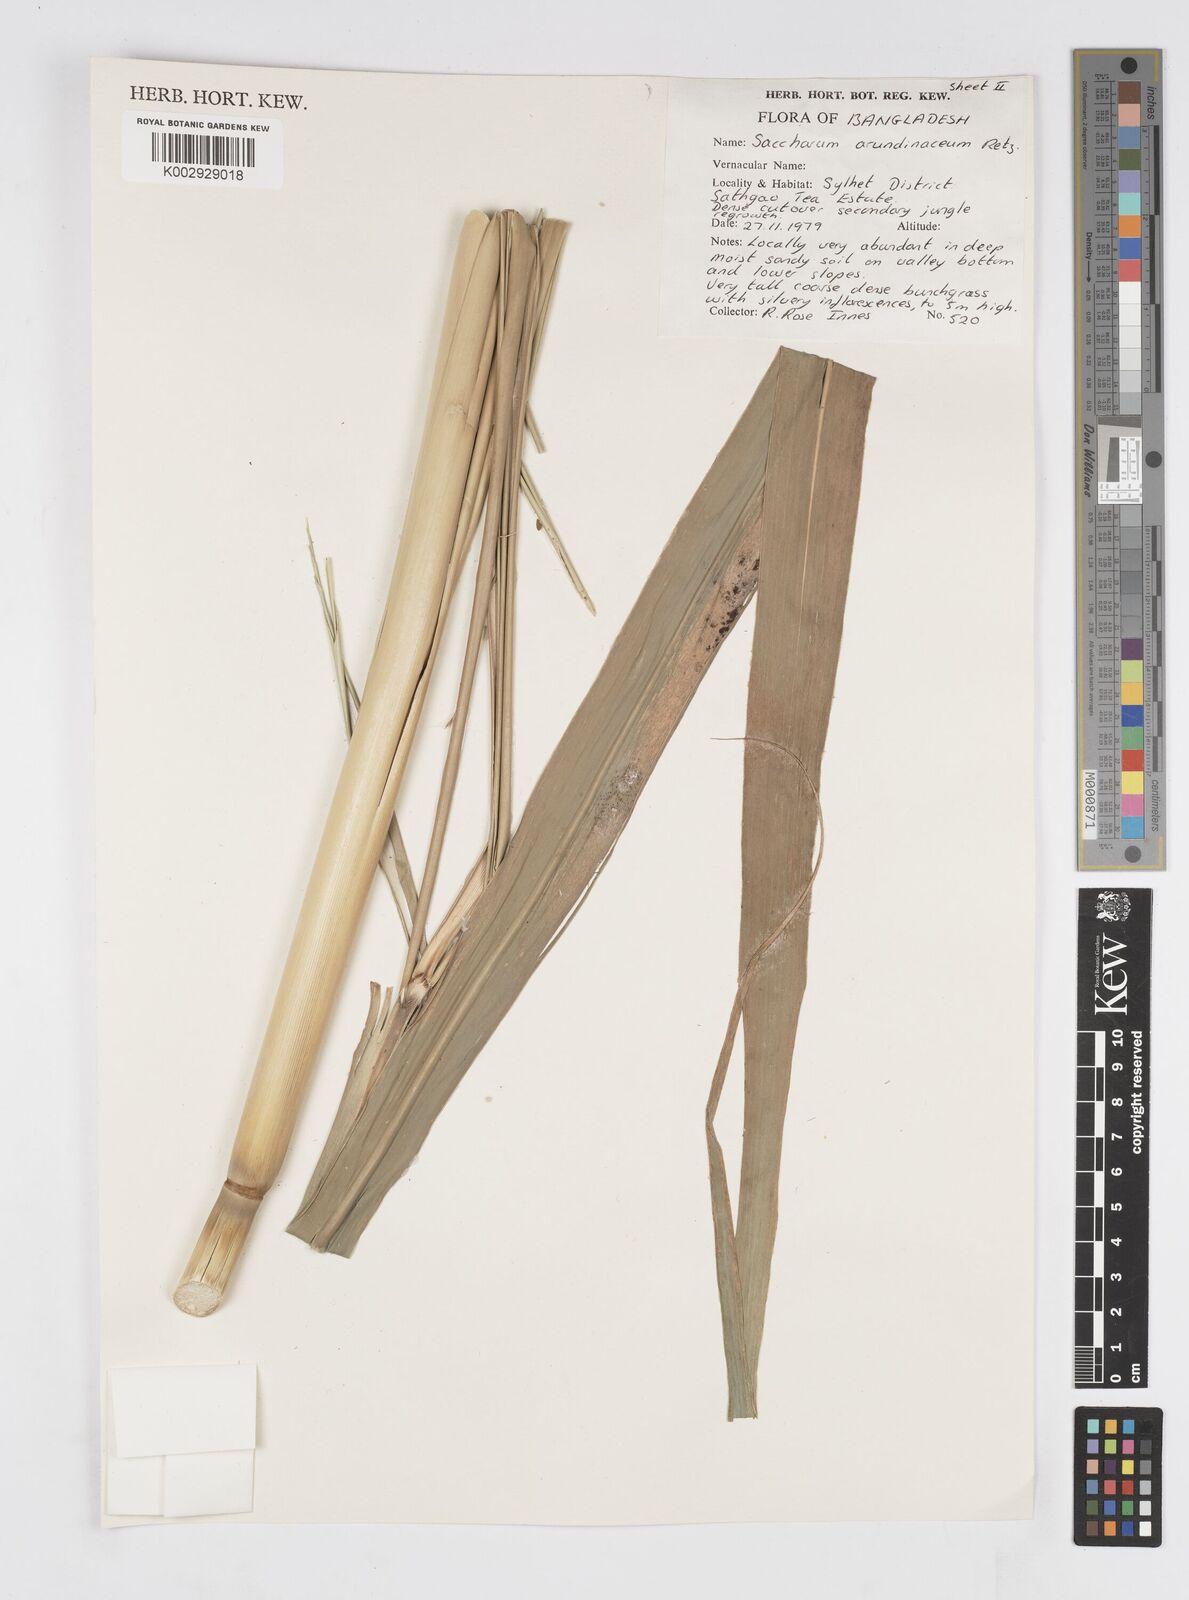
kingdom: Plantae
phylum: Tracheophyta
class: Liliopsida
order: Poales
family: Poaceae
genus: Tripidium
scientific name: Tripidium arundinaceum
